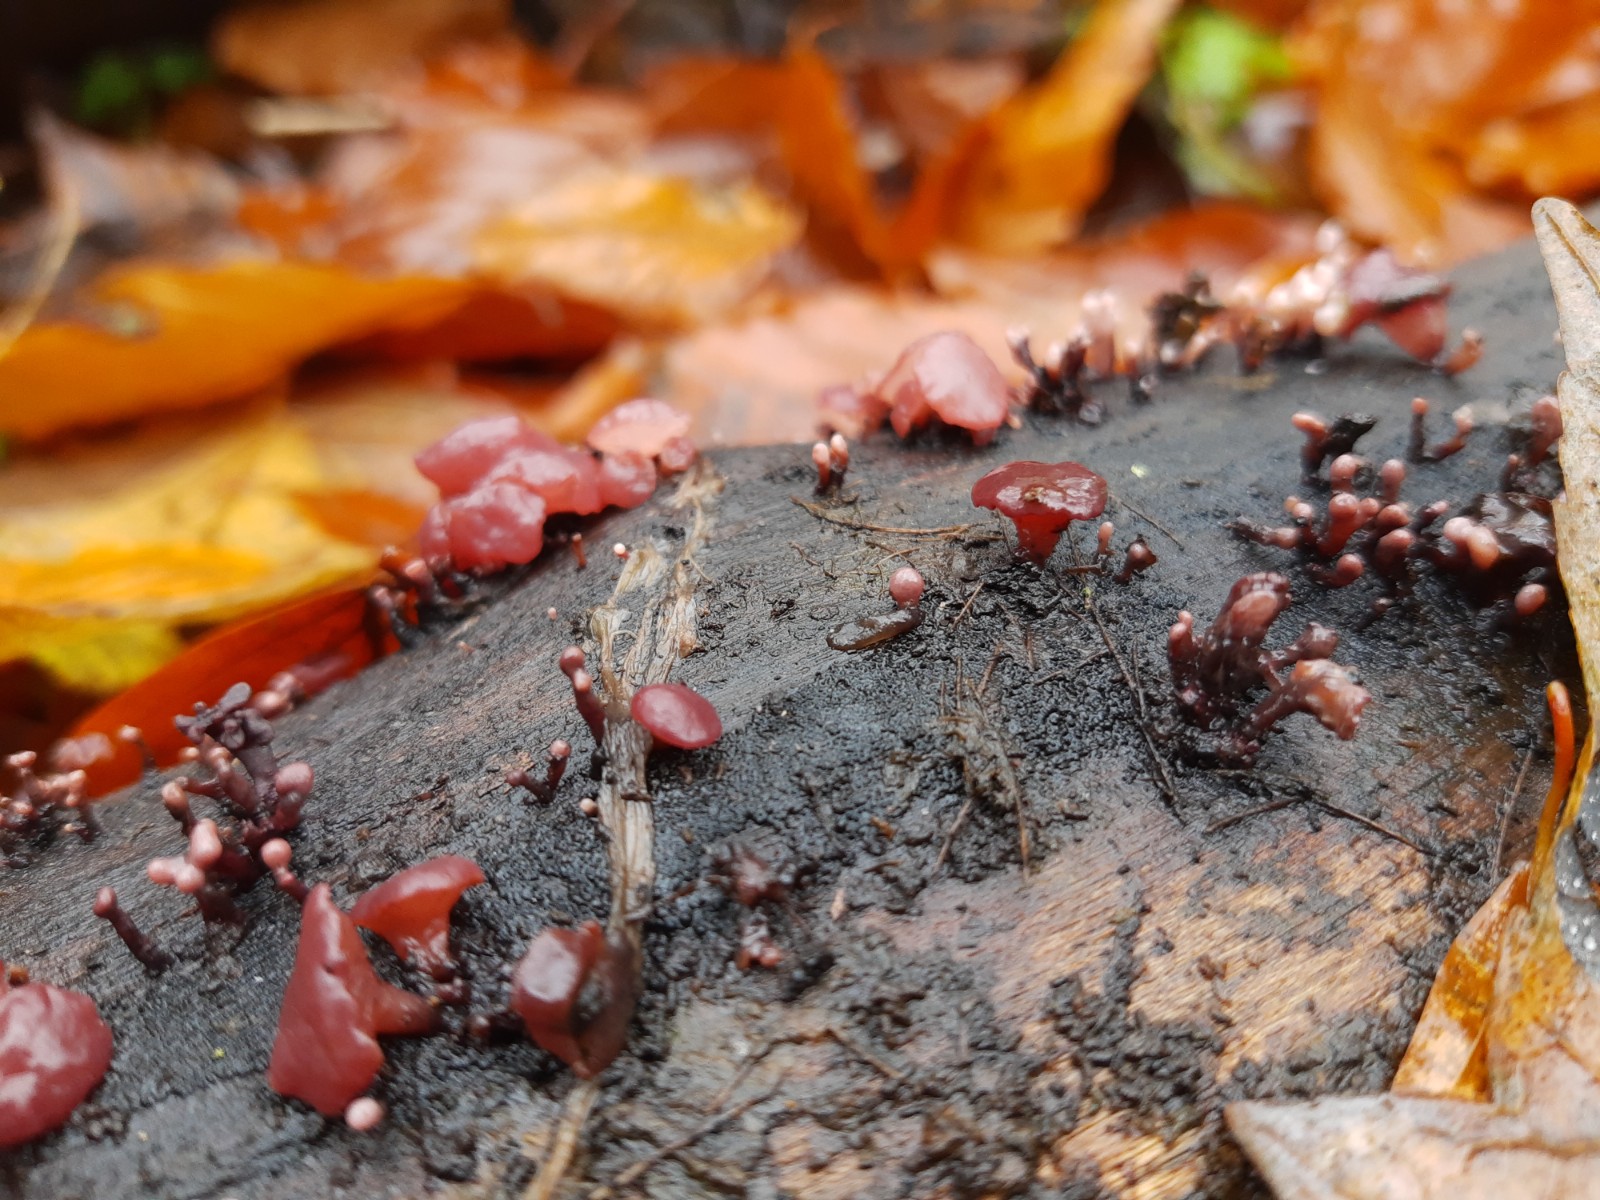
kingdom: Fungi
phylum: Ascomycota
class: Leotiomycetes
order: Helotiales
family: Gelatinodiscaceae
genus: Ascocoryne
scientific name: Ascocoryne albida
